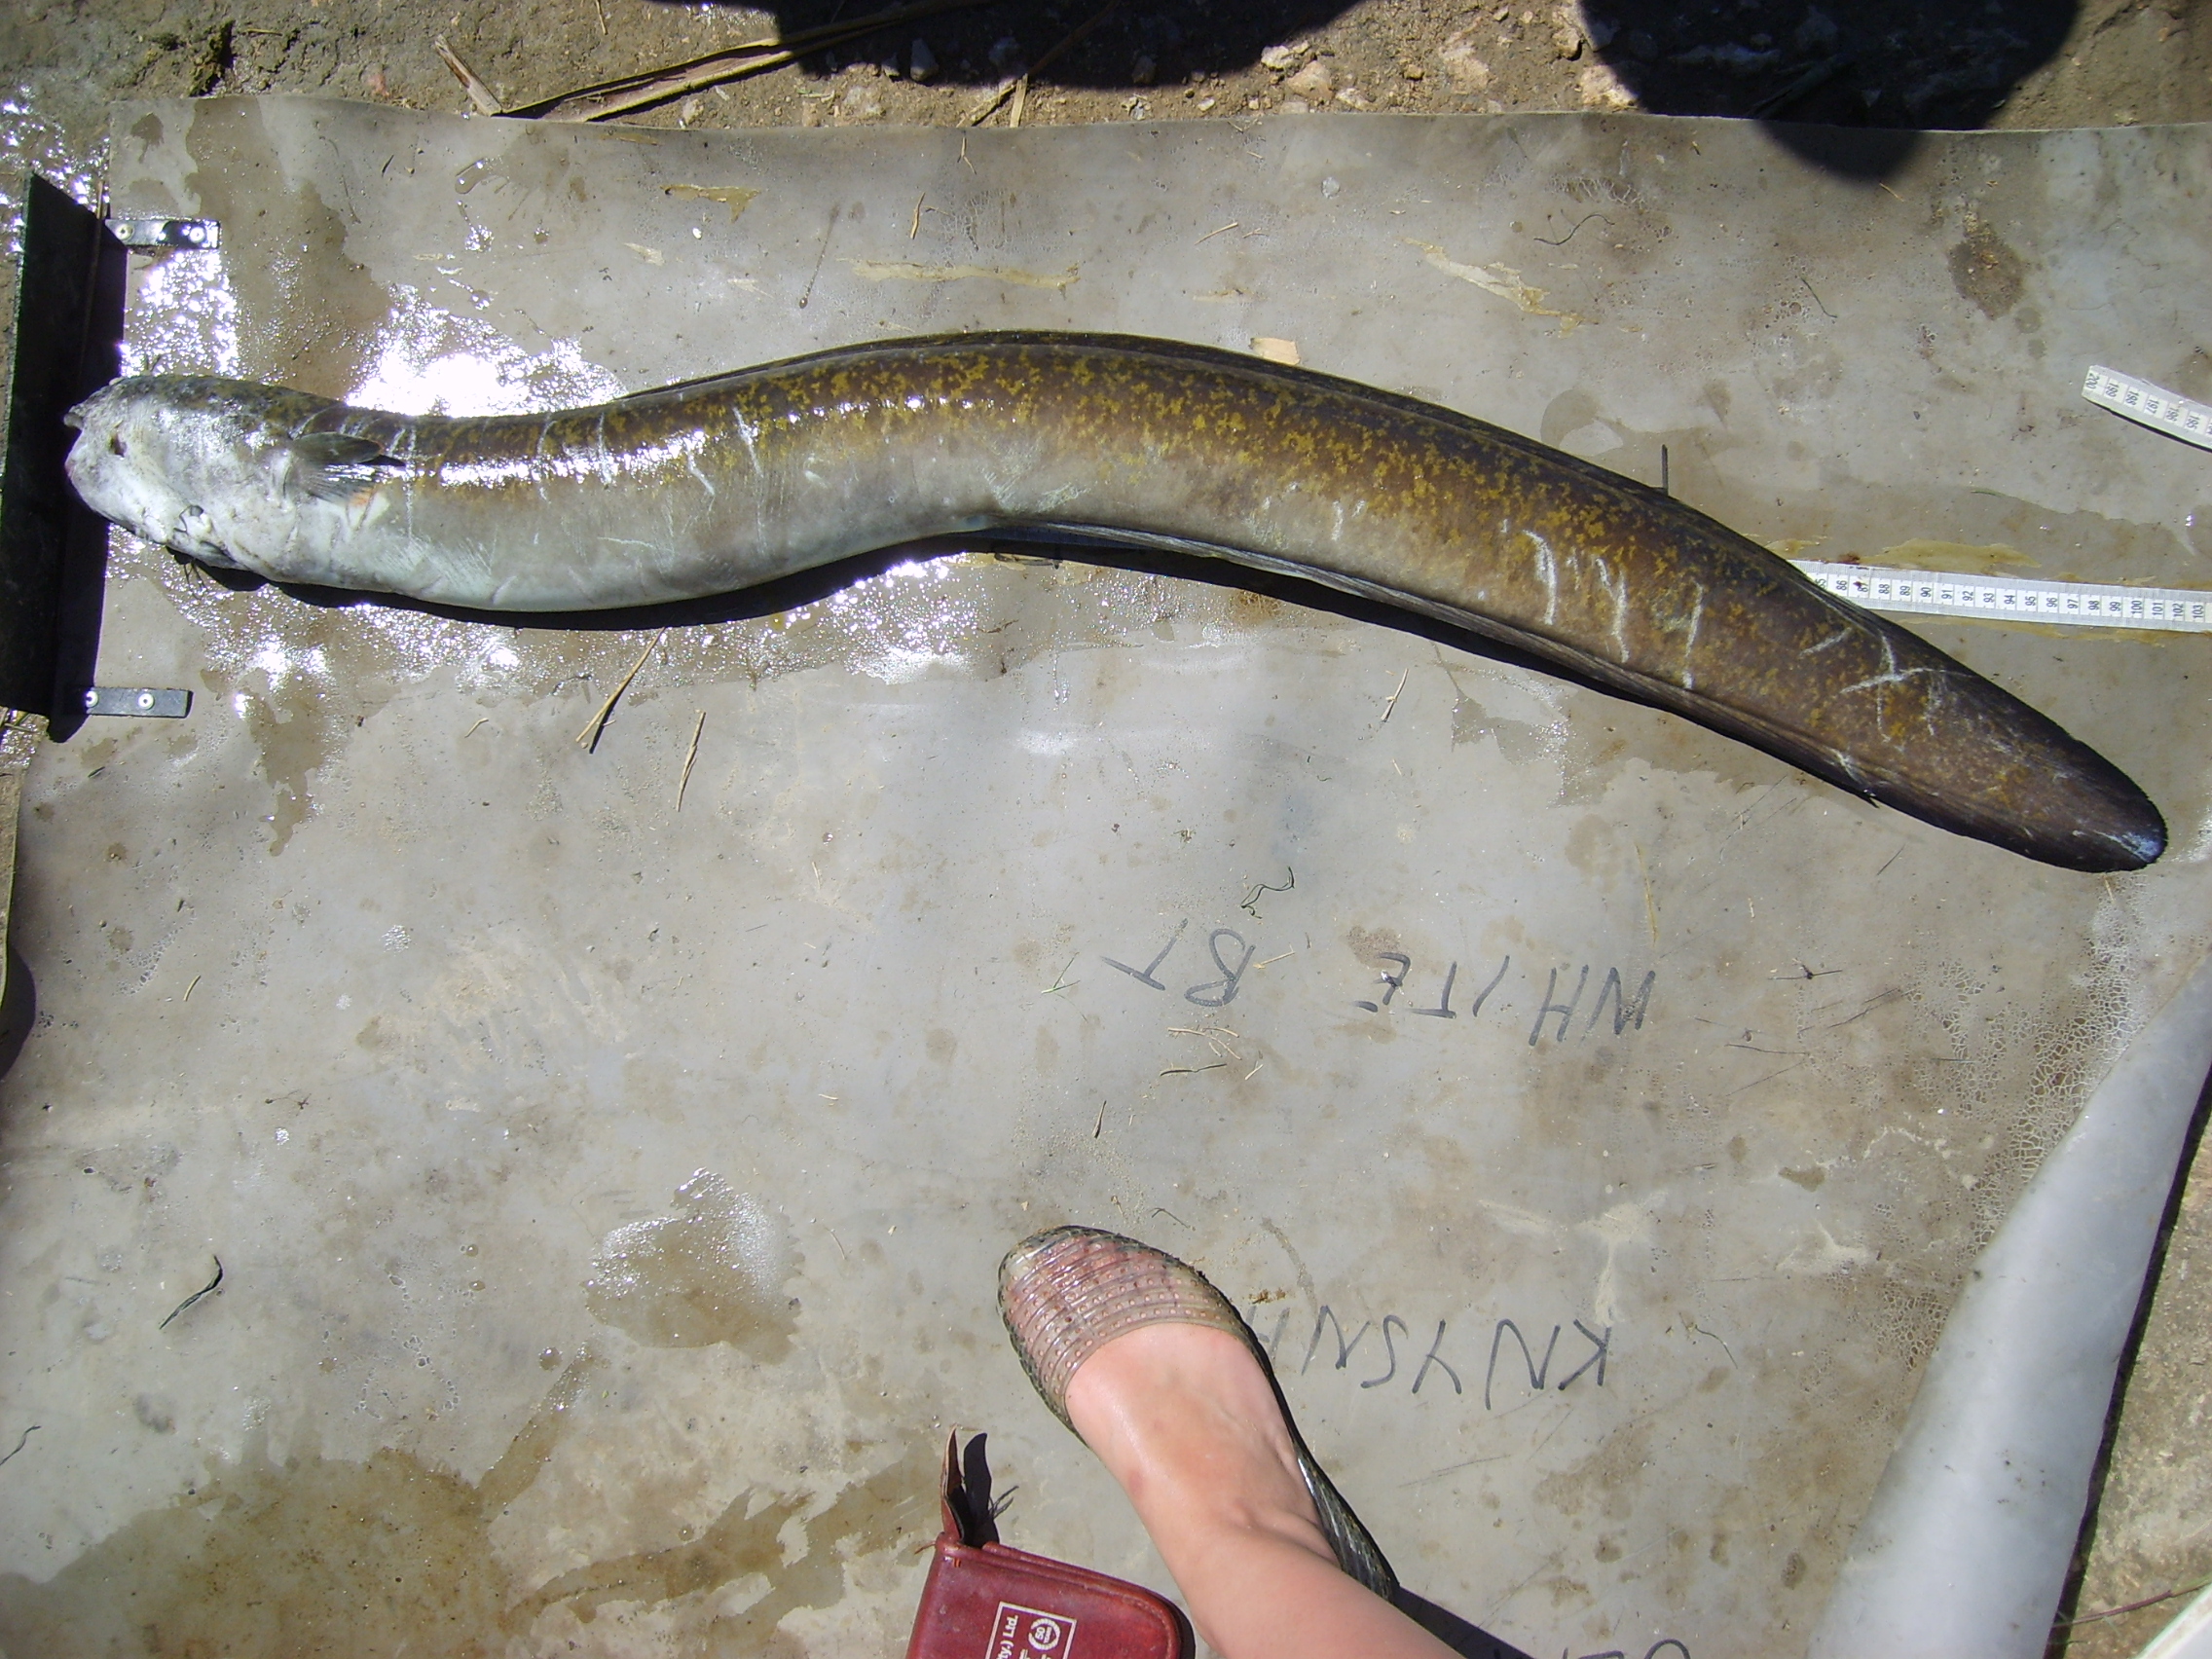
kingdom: Animalia
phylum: Chordata
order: Anguilliformes
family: Anguillidae
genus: Anguilla
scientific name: Anguilla marmorata
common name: Giant mottled eel
